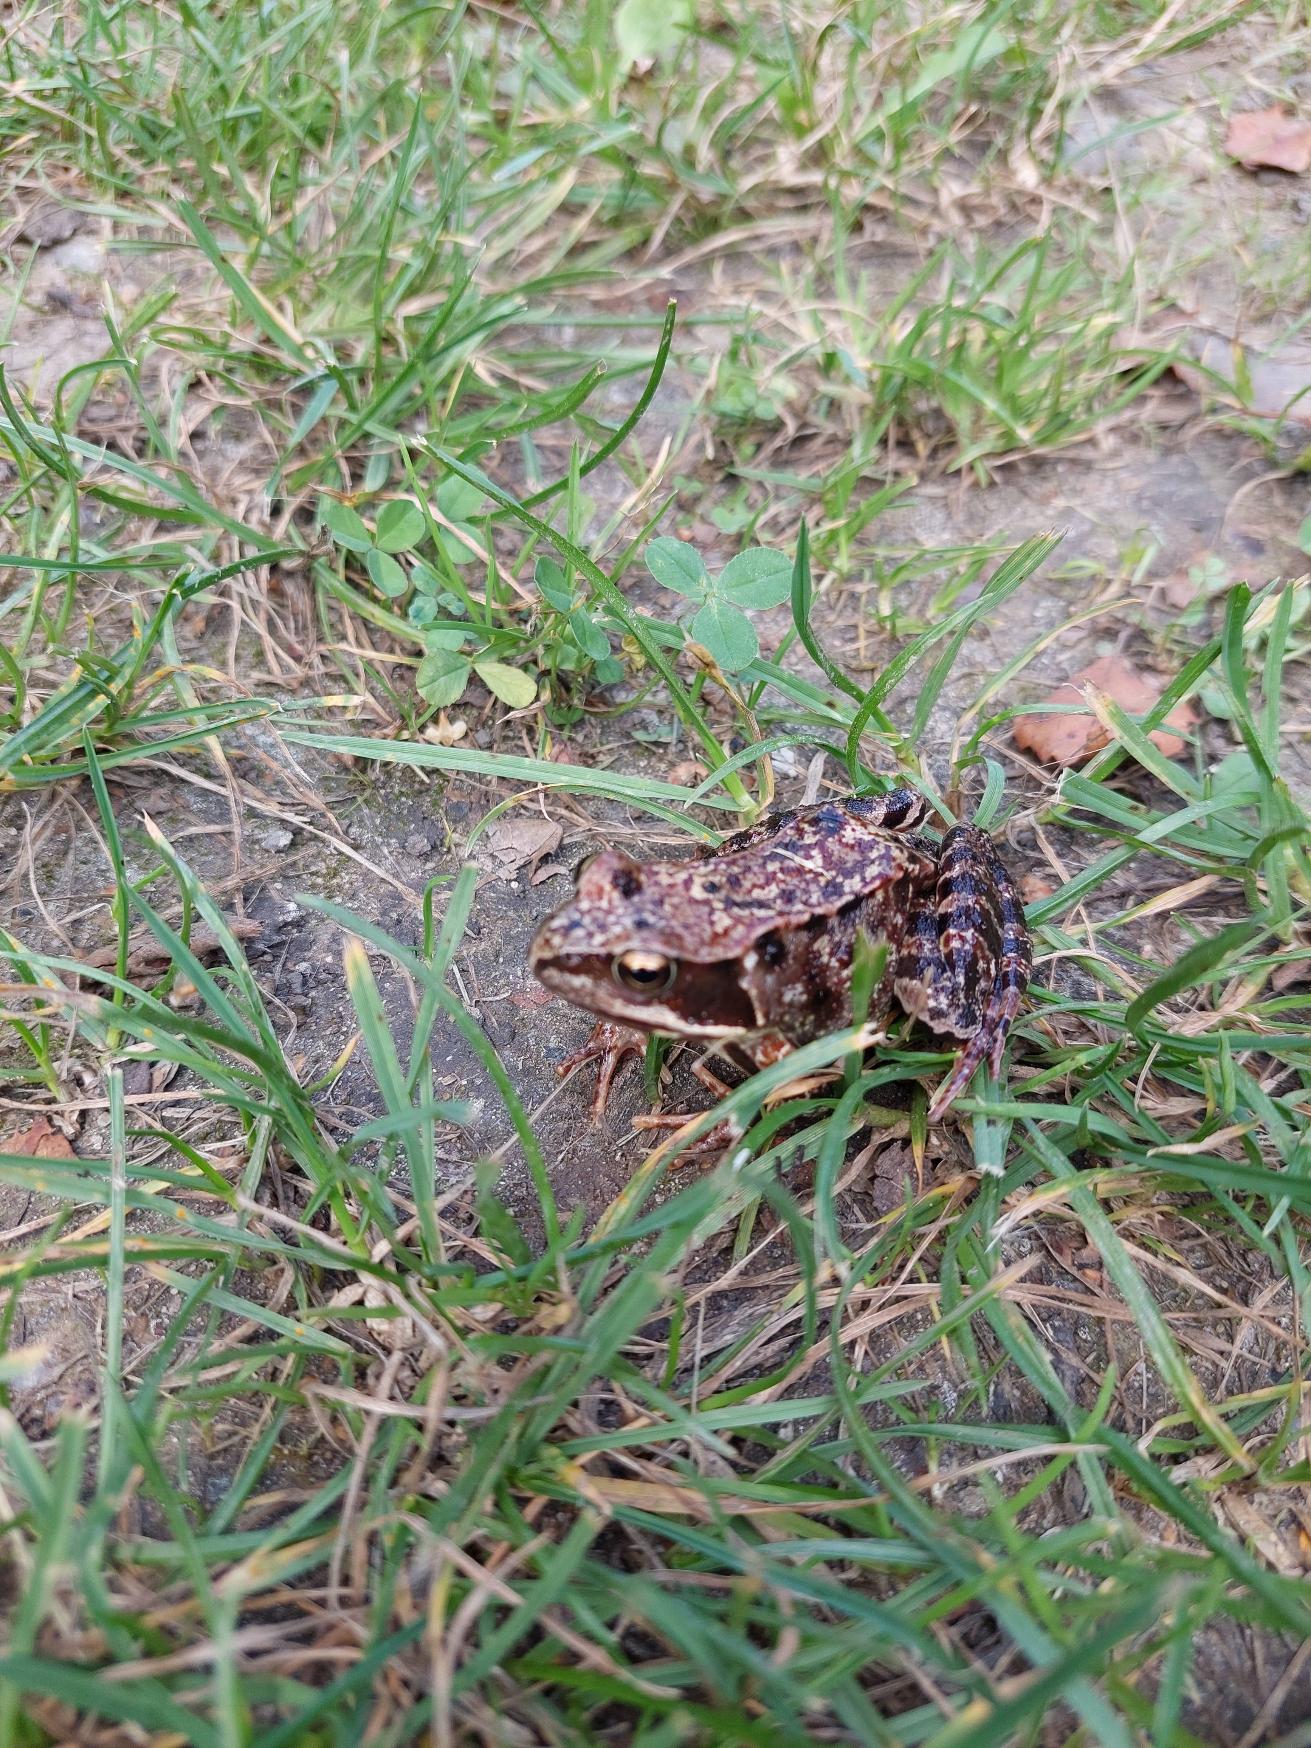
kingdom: Animalia
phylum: Chordata
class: Amphibia
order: Anura
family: Ranidae
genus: Rana
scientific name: Rana temporaria
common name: Butsnudet frø
